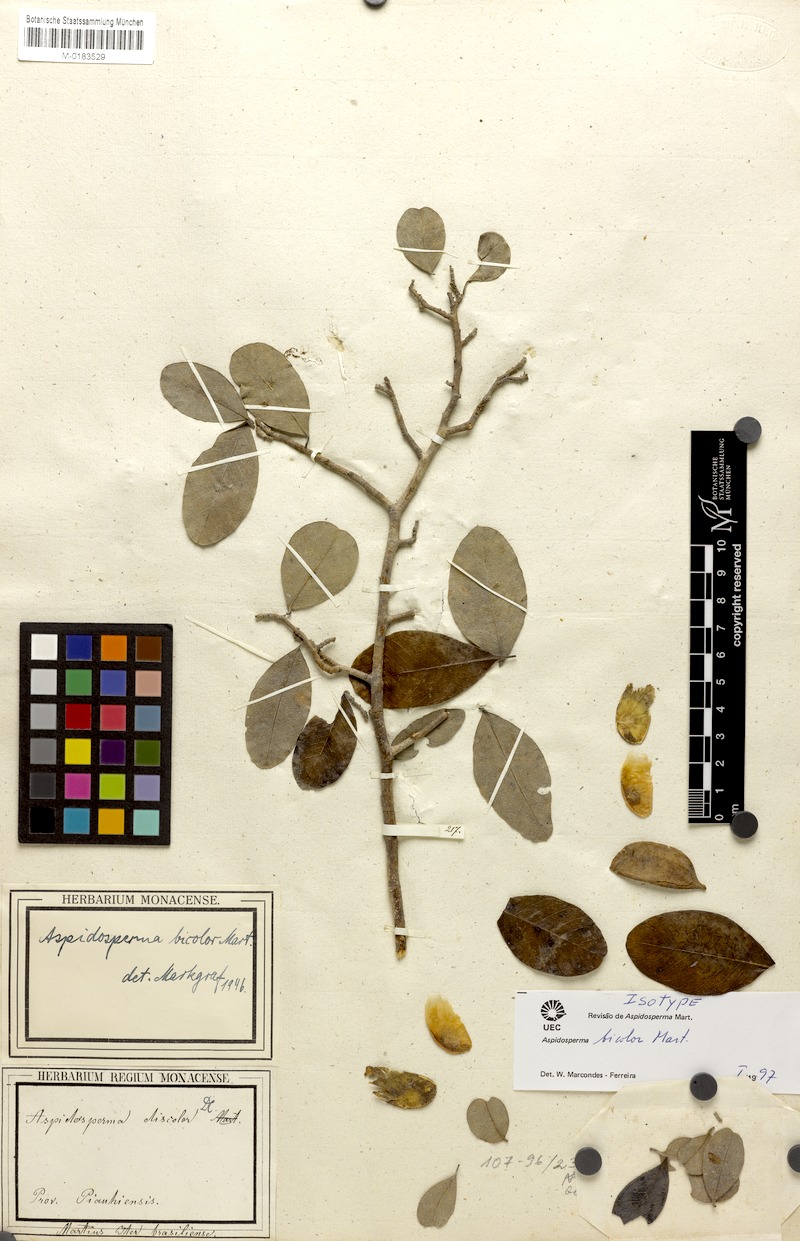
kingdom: Plantae
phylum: Tracheophyta
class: Magnoliopsida
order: Gentianales
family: Apocynaceae
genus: Aspidosperma
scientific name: Aspidosperma pyrifolium
